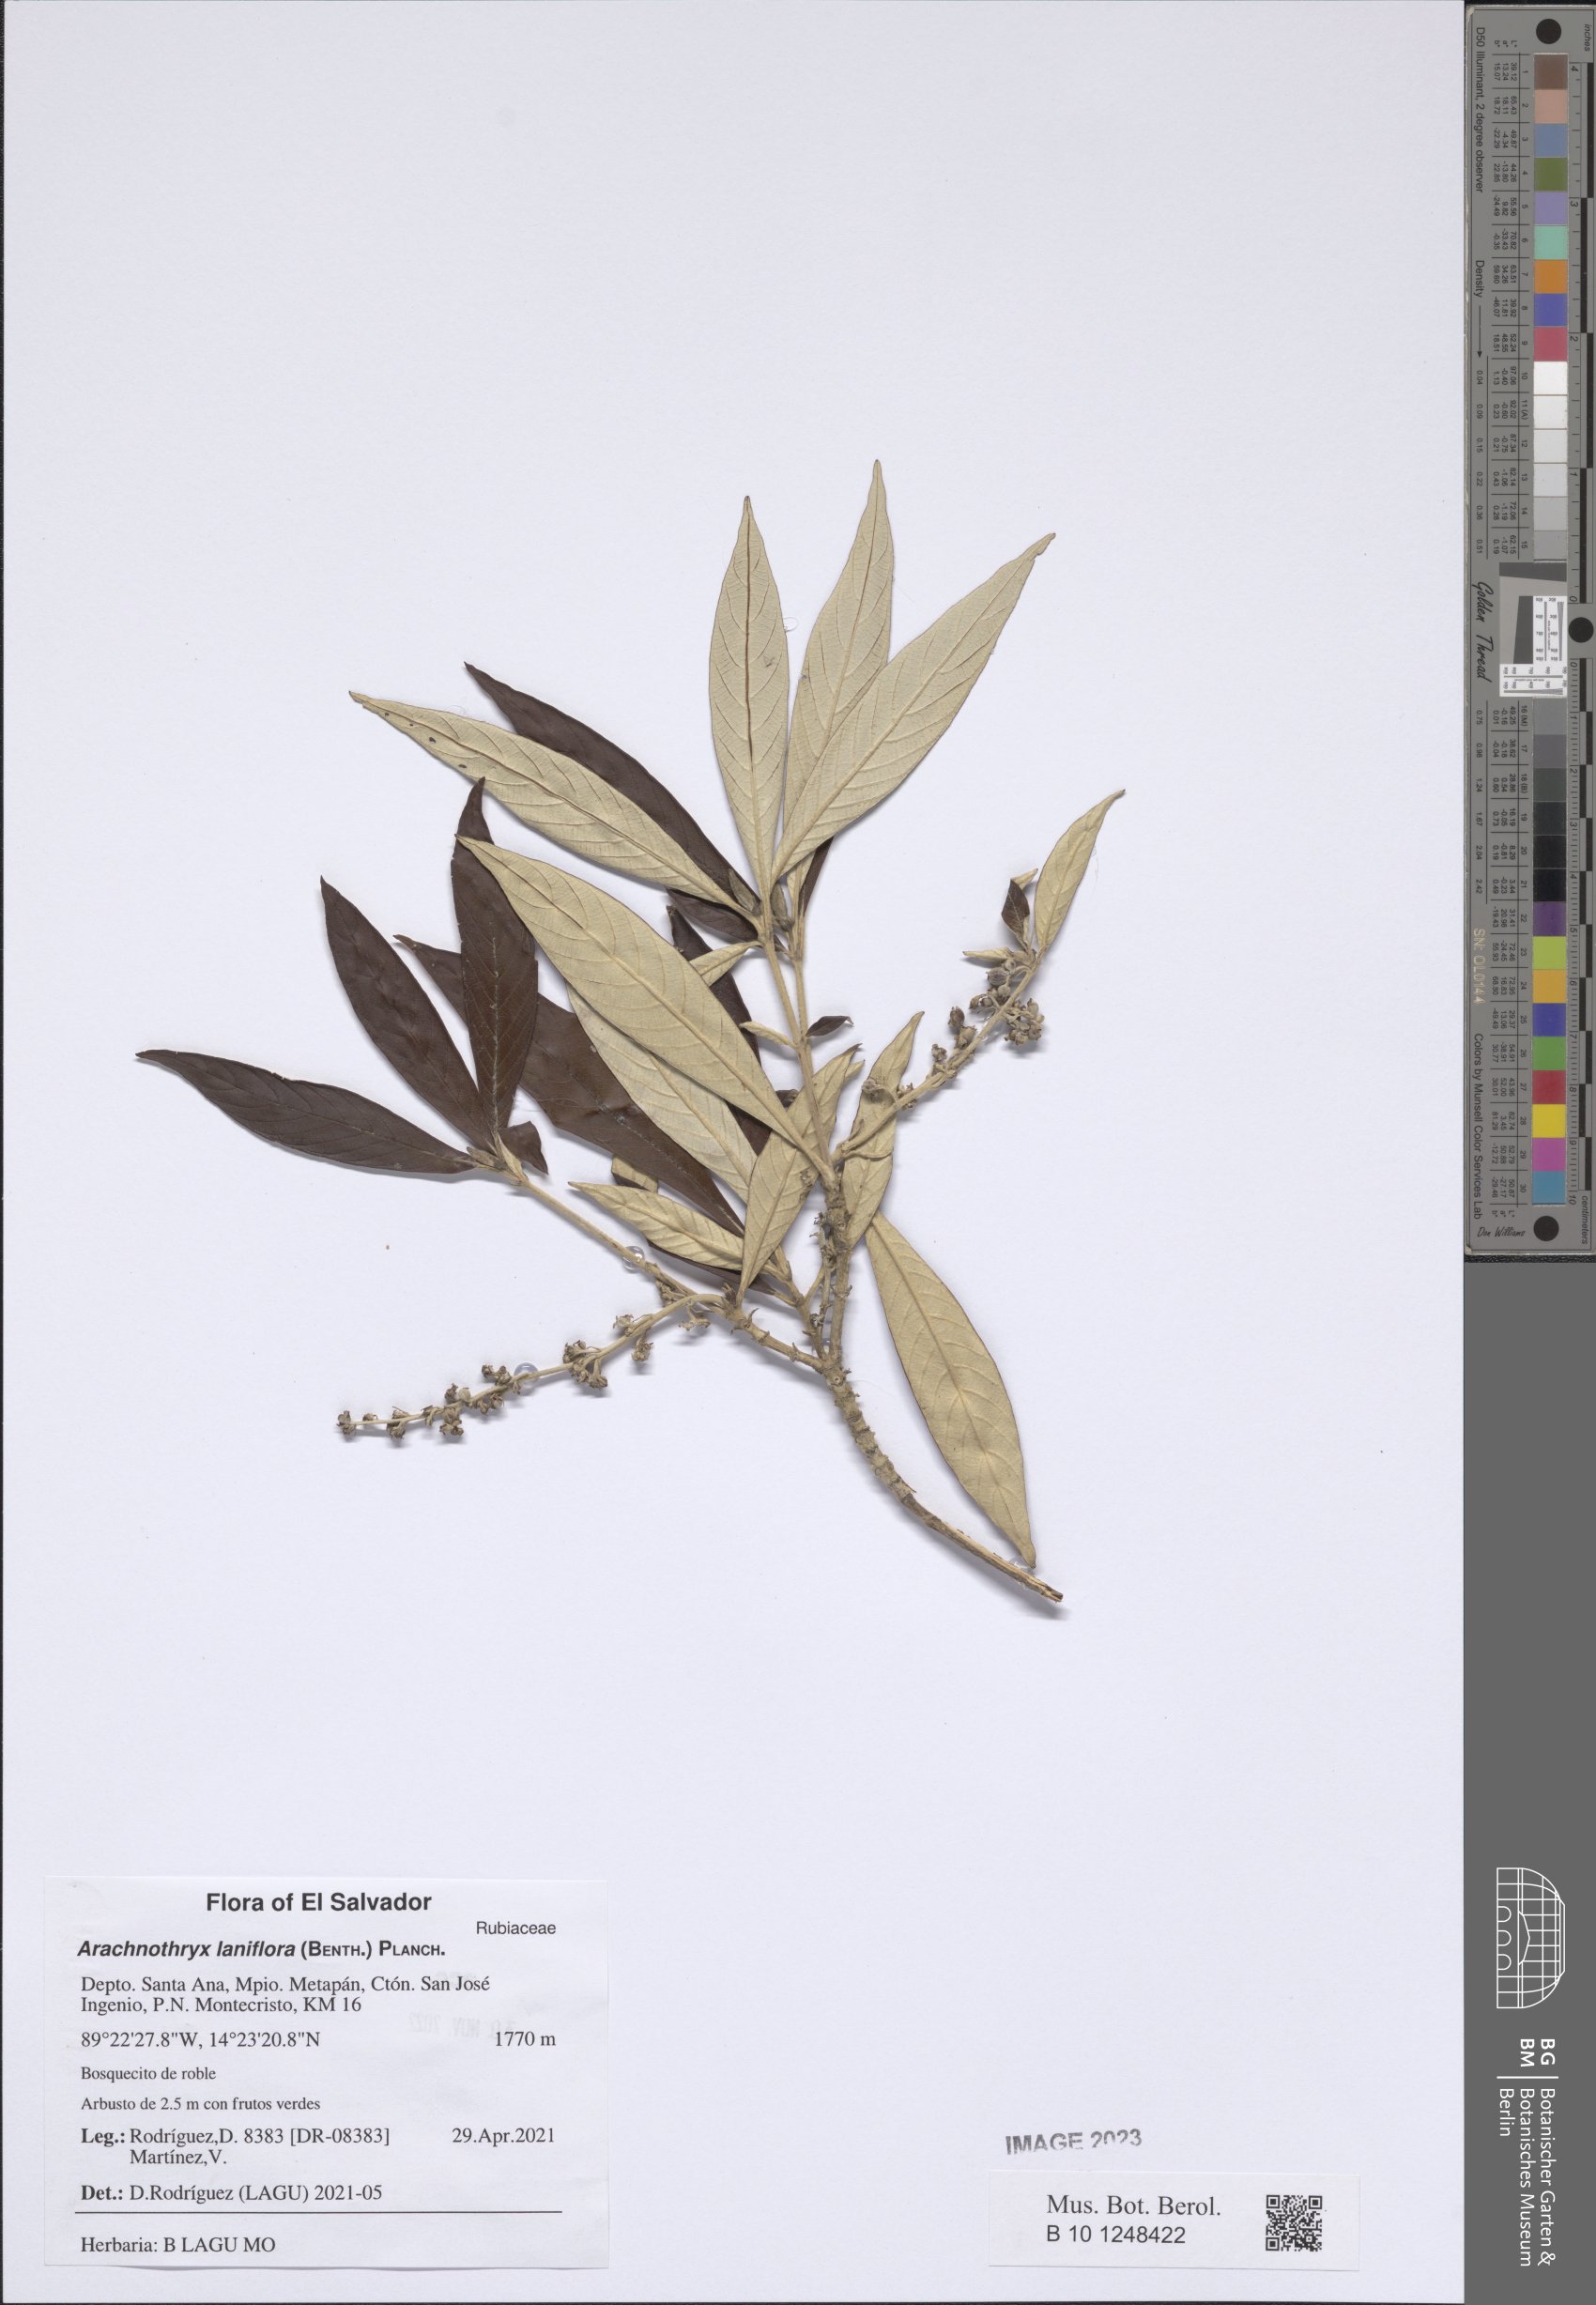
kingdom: Plantae
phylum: Tracheophyta
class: Magnoliopsida
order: Gentianales
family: Rubiaceae
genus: Arachnothryx
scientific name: Arachnothryx laniflora
